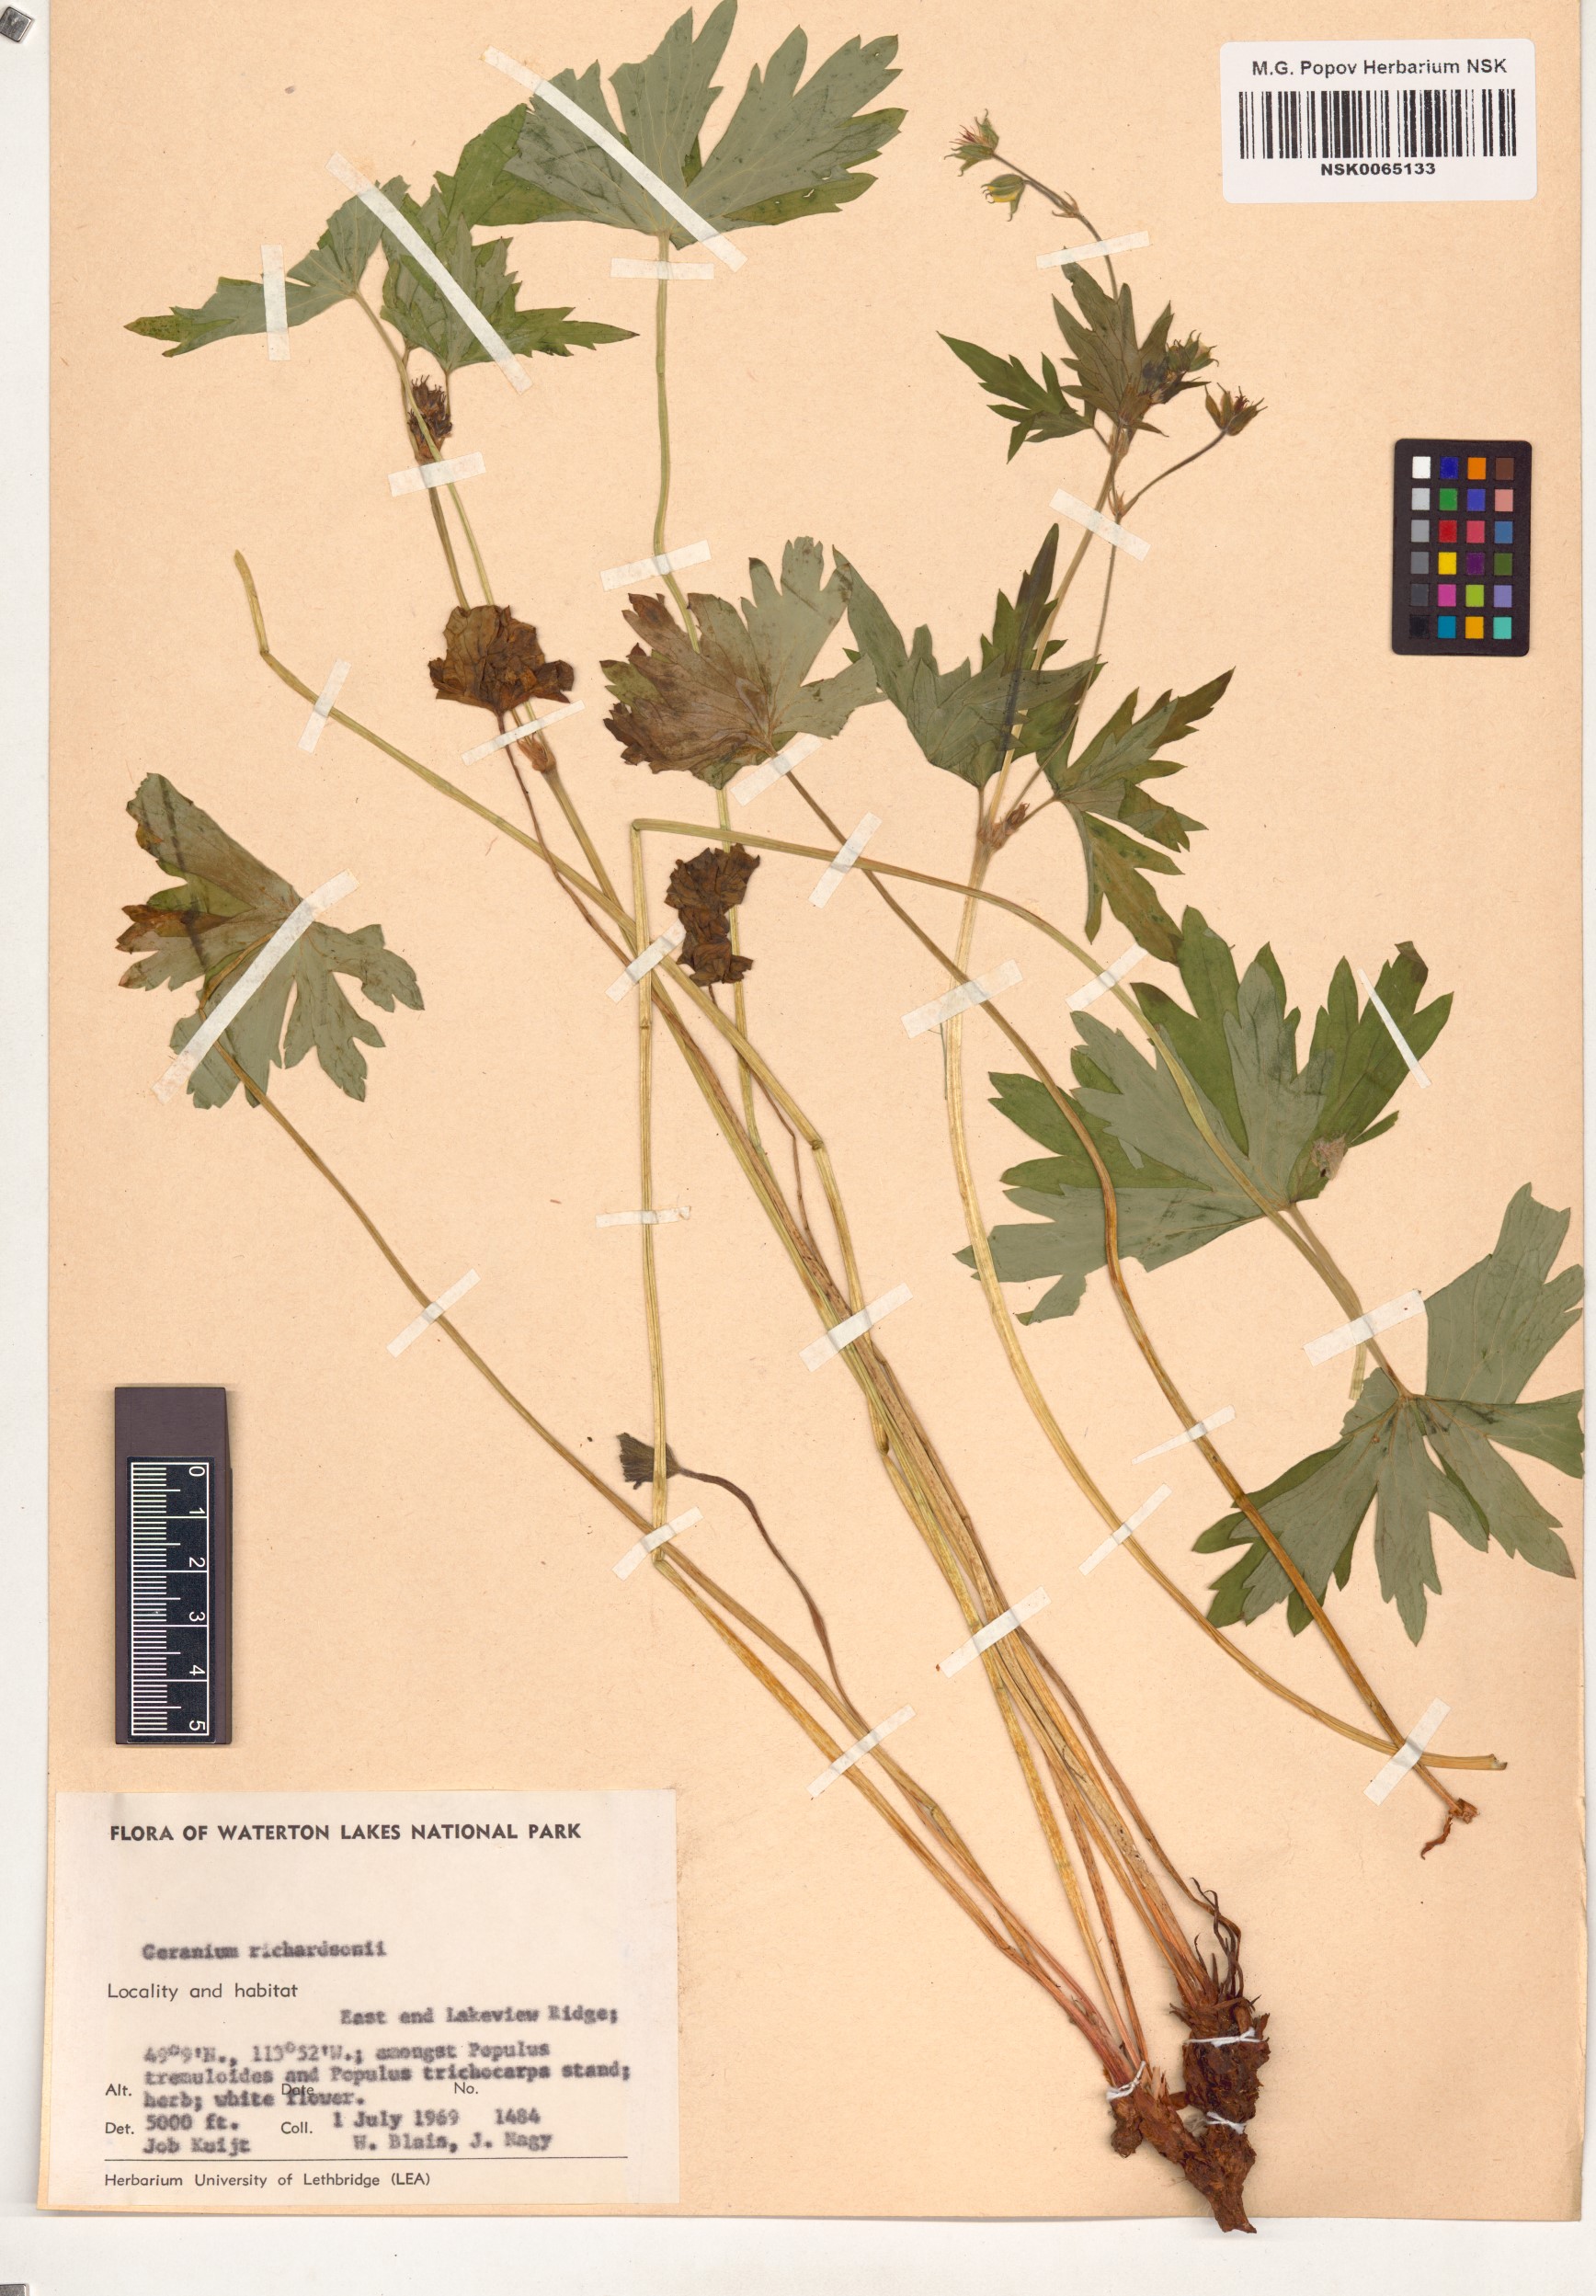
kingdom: Plantae
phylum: Tracheophyta
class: Magnoliopsida
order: Geraniales
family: Geraniaceae
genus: Geranium
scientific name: Geranium richardsonii
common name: Richardson's crane's-bill
